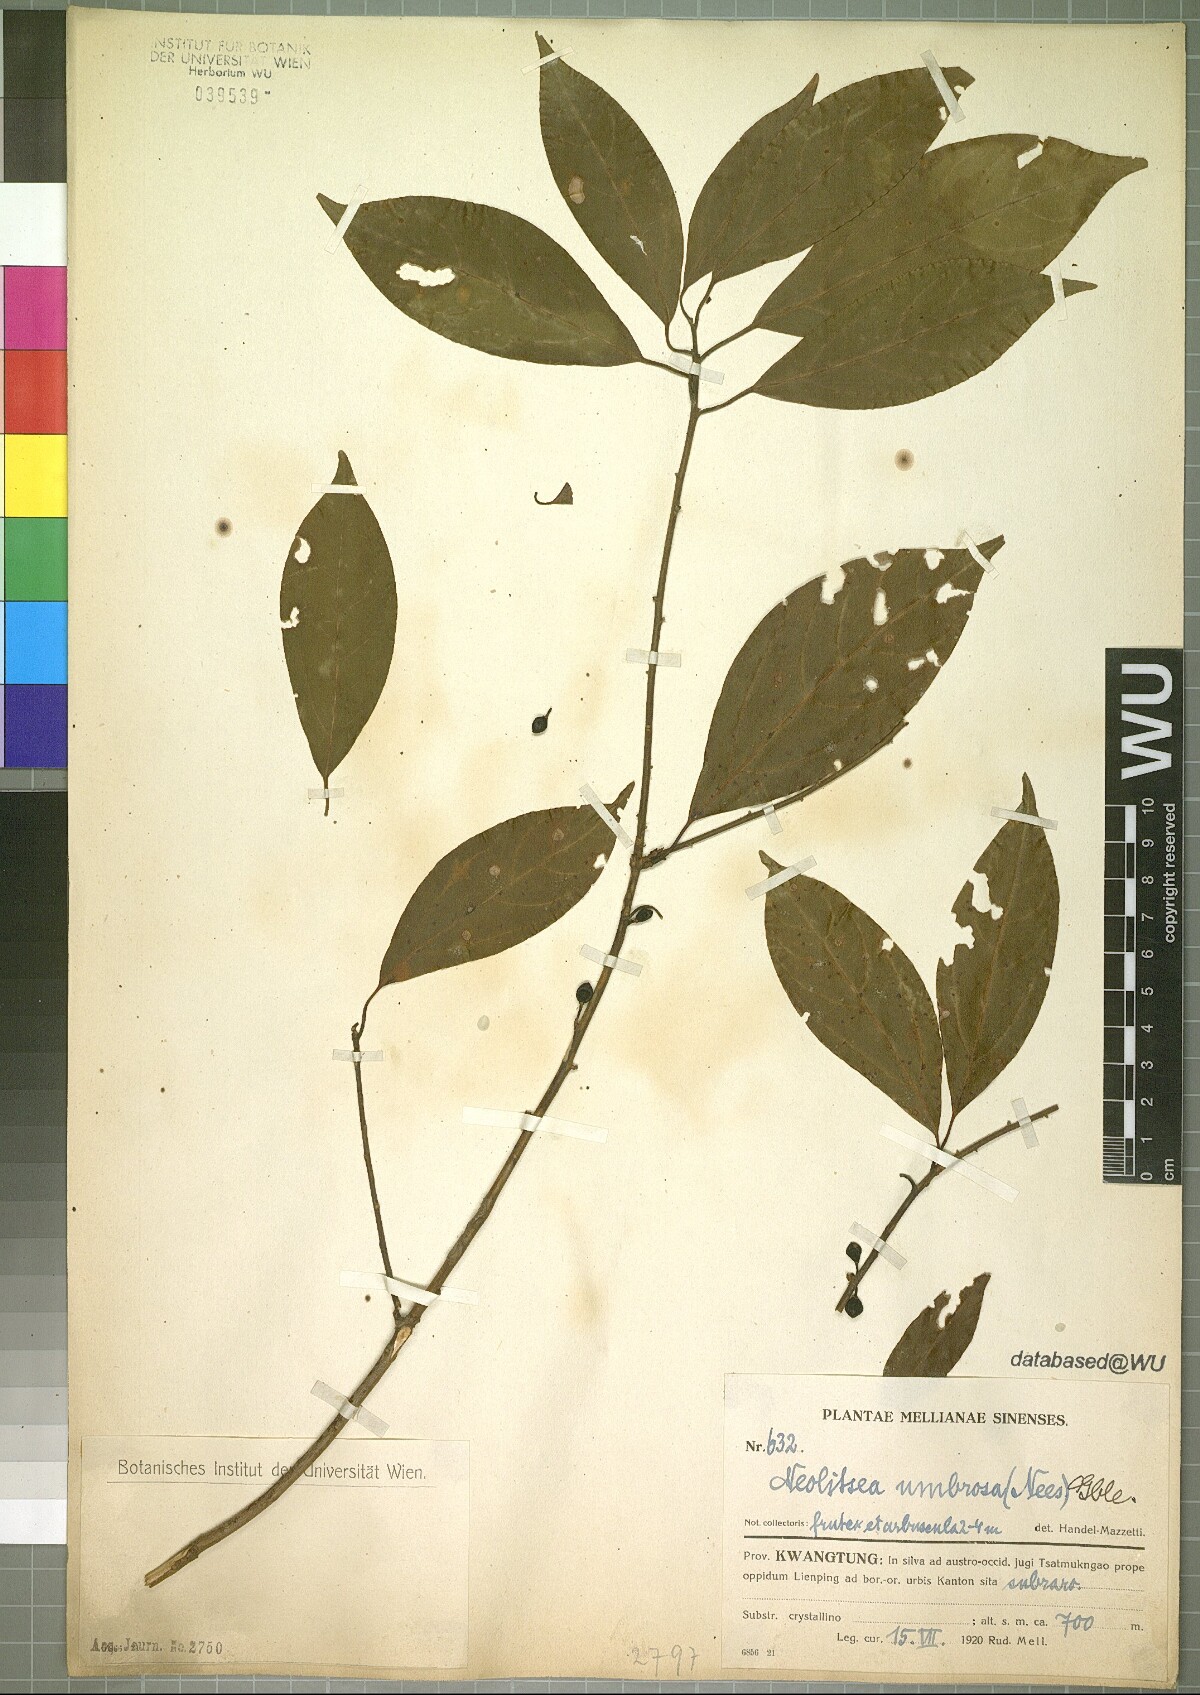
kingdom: Plantae
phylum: Tracheophyta
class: Magnoliopsida
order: Laurales
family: Lauraceae
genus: Neolitsea
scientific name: Neolitsea umbrosa
